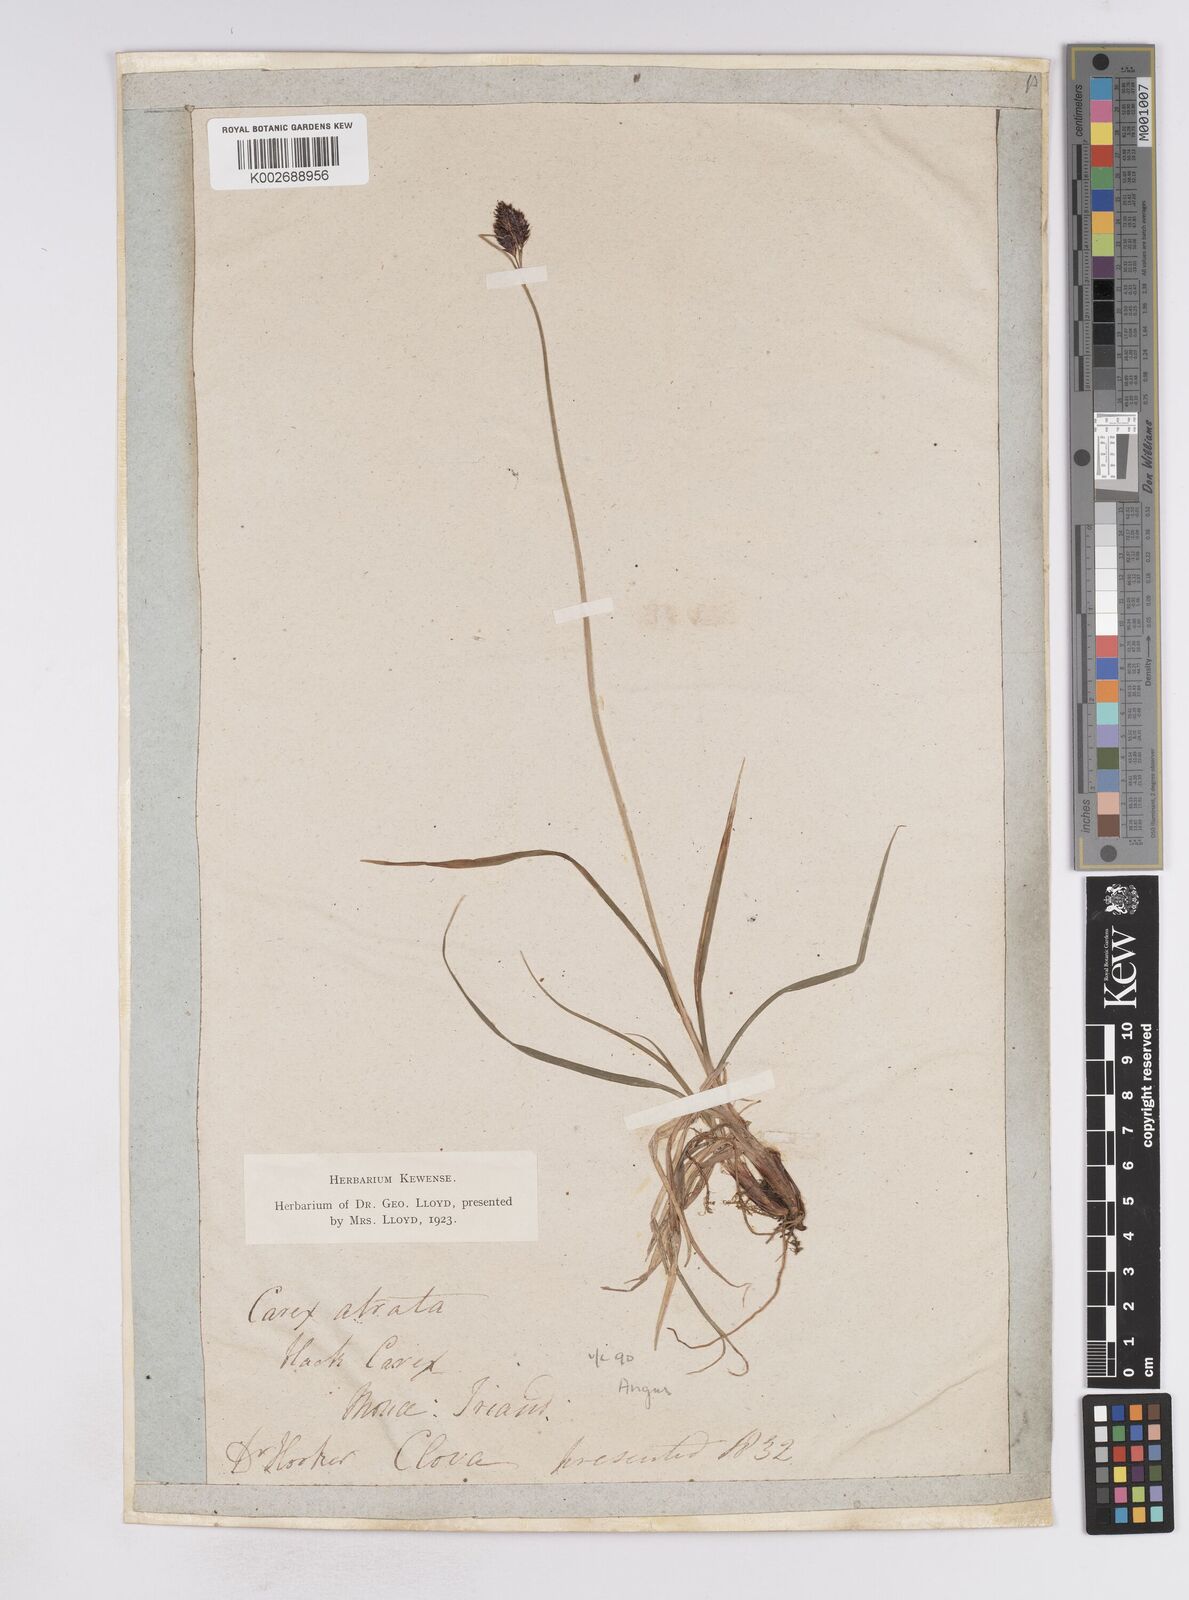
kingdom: Plantae
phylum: Tracheophyta
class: Liliopsida
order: Poales
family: Cyperaceae
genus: Carex
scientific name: Carex atrata
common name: Black alpine sedge
